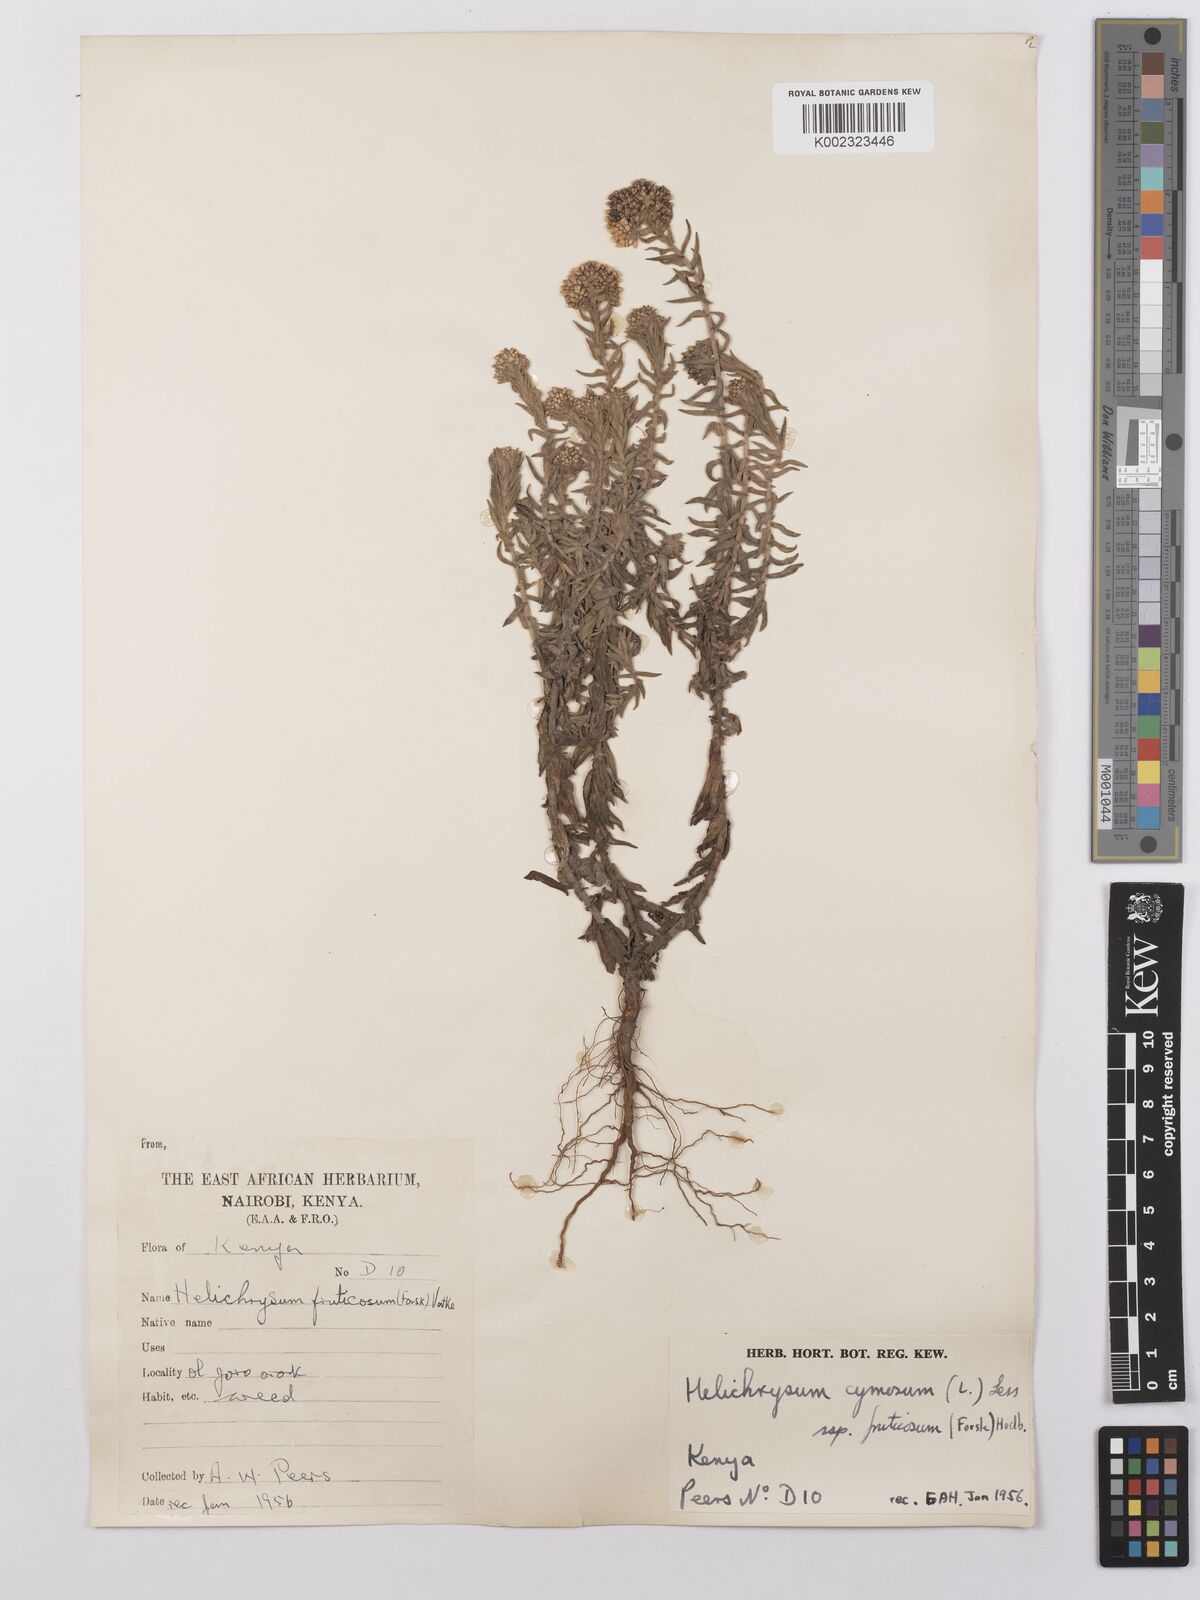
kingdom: Plantae
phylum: Tracheophyta
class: Magnoliopsida
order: Asterales
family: Asteraceae
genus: Helichrysum
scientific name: Helichrysum forskahlii
